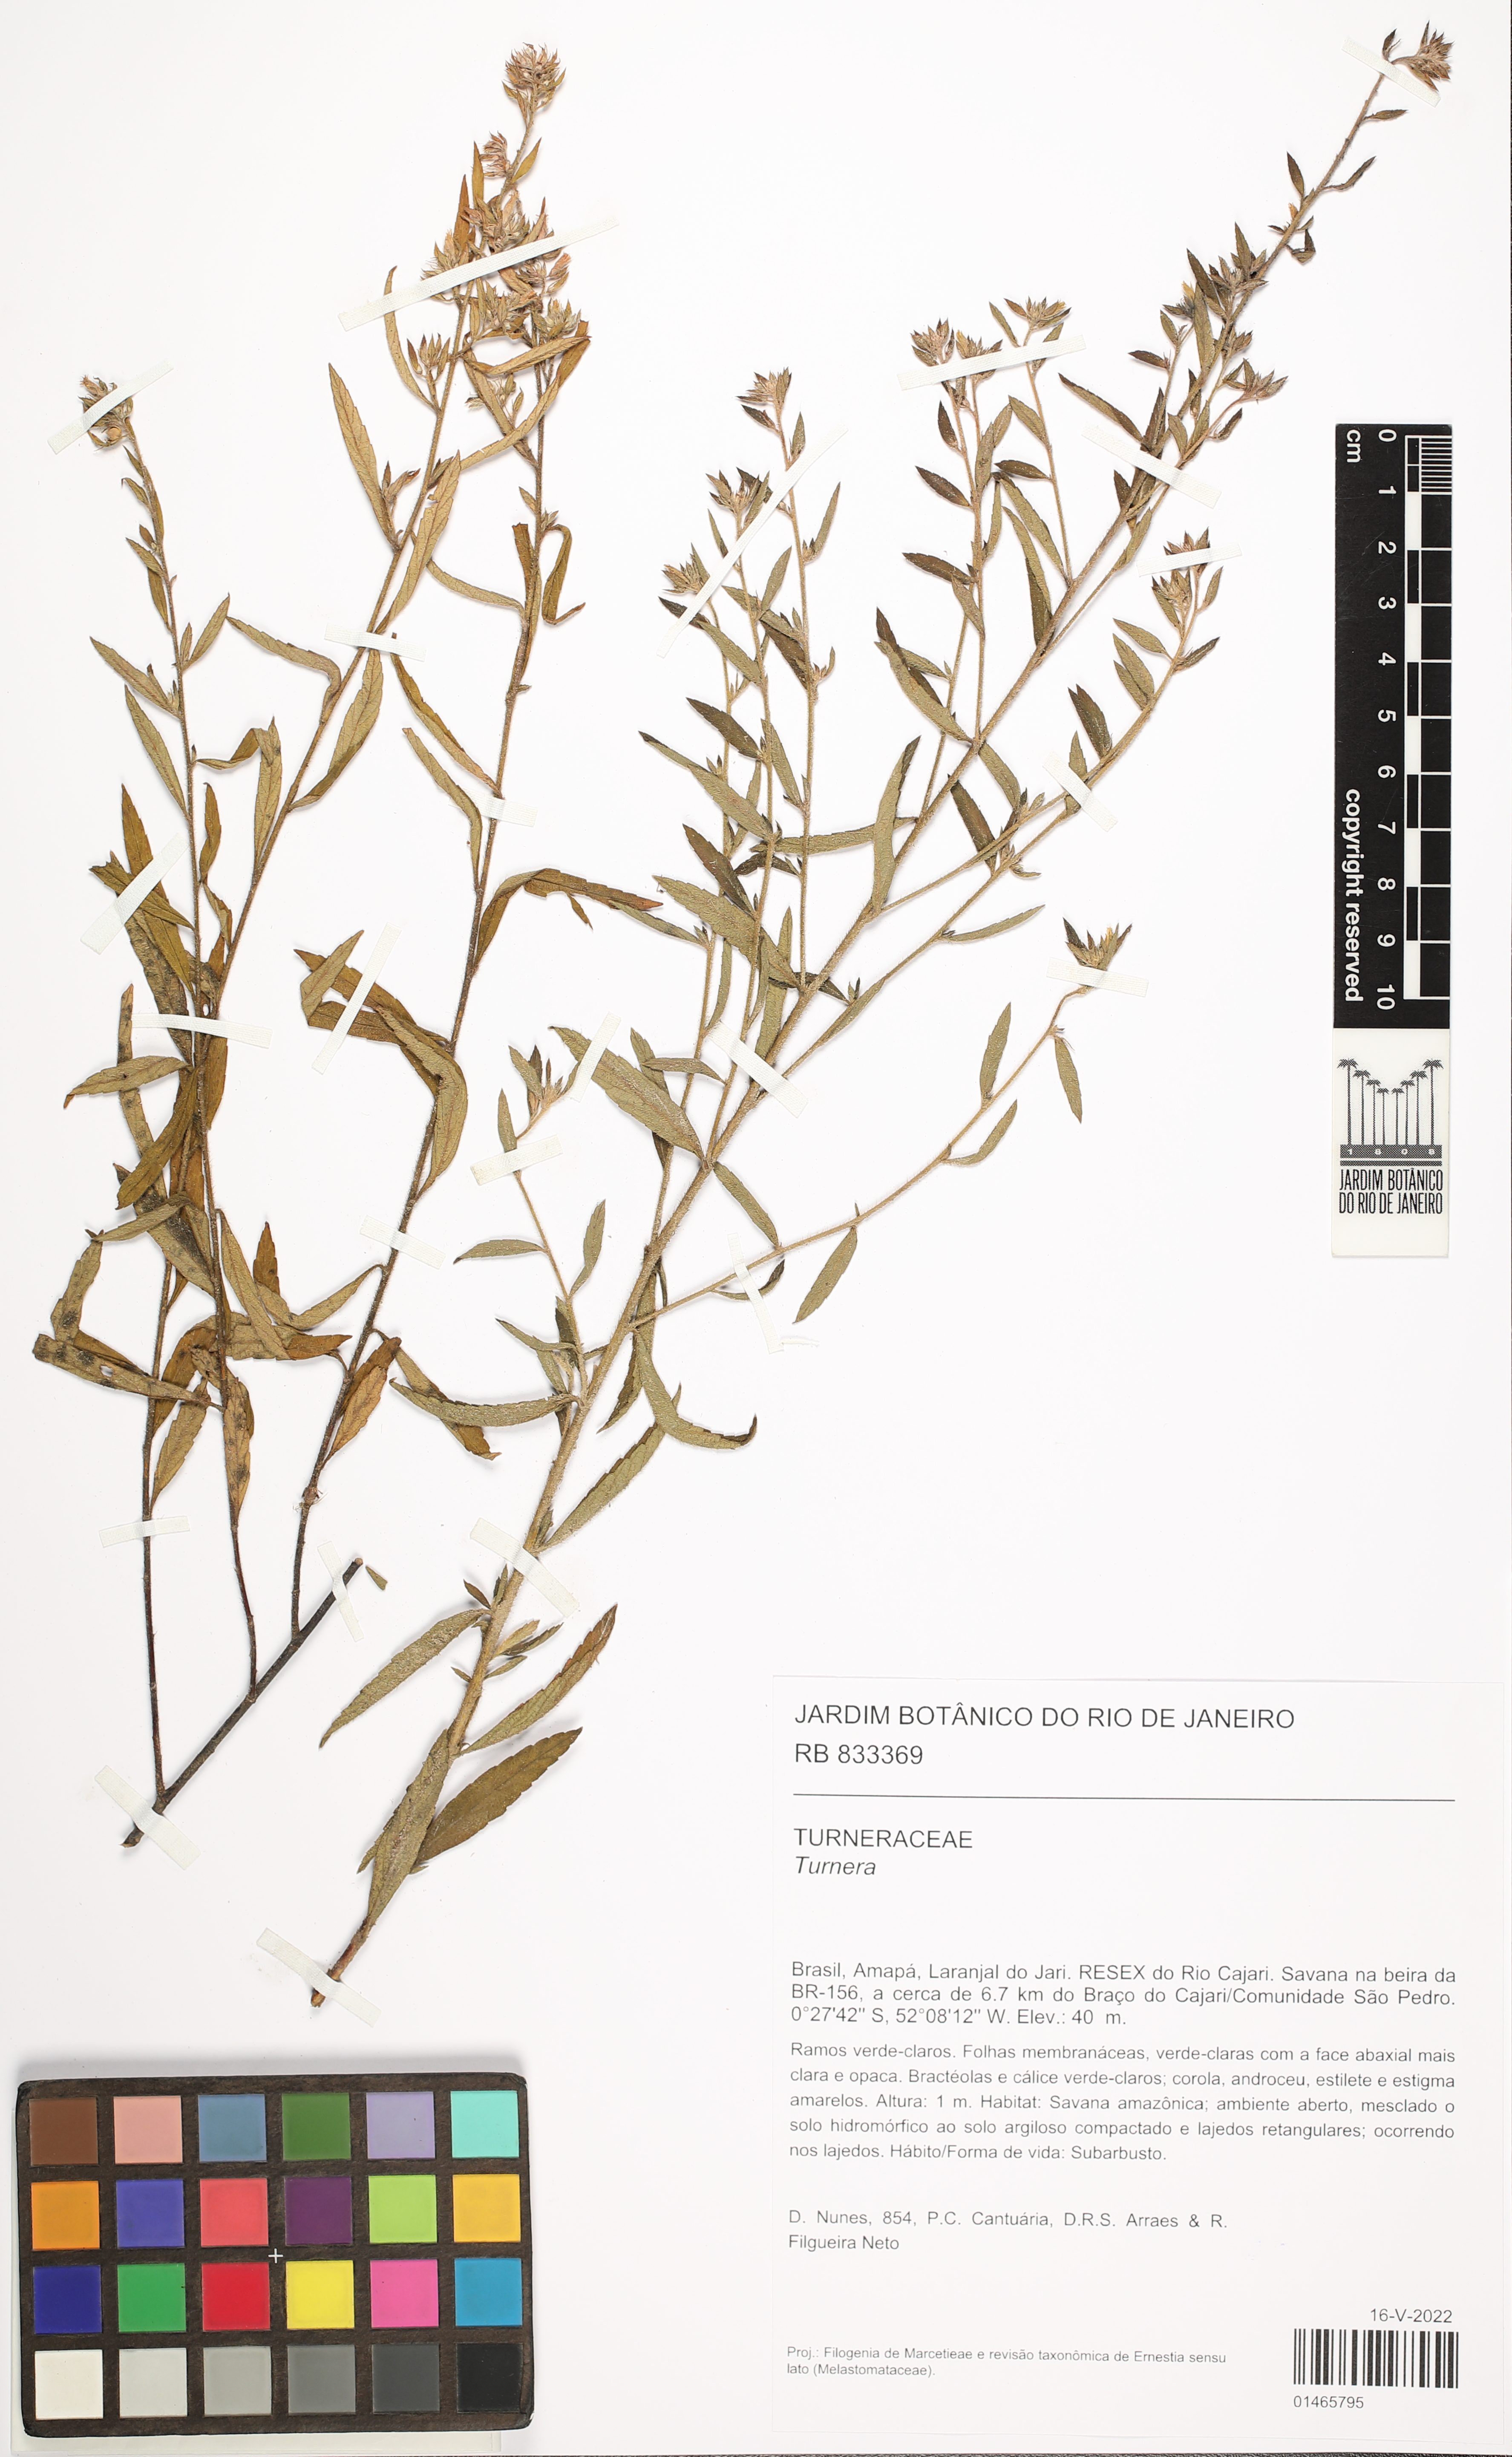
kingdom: Plantae
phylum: Tracheophyta
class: Magnoliopsida
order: Malpighiales
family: Turneraceae
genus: Turnera
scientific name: Turnera
